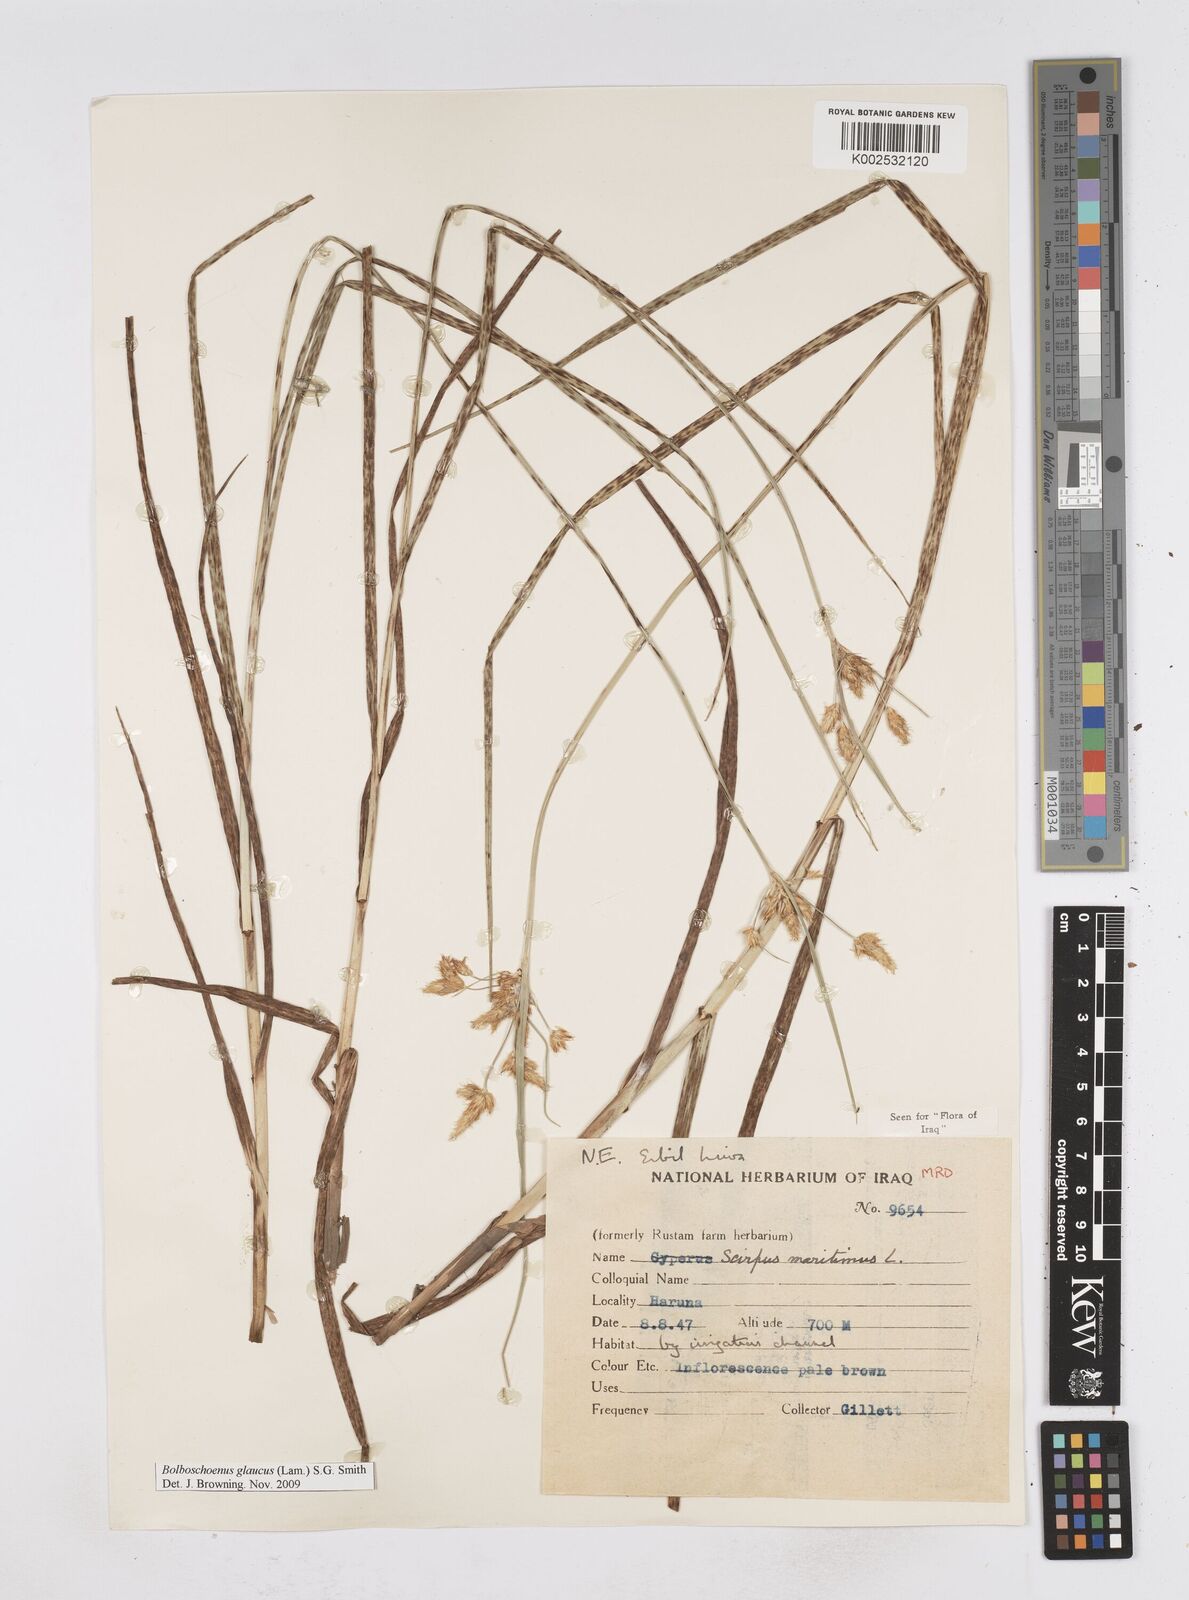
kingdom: Plantae
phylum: Tracheophyta
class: Liliopsida
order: Poales
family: Cyperaceae
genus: Bolboschoenus
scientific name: Bolboschoenus maritimus
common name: Sea club-rush
